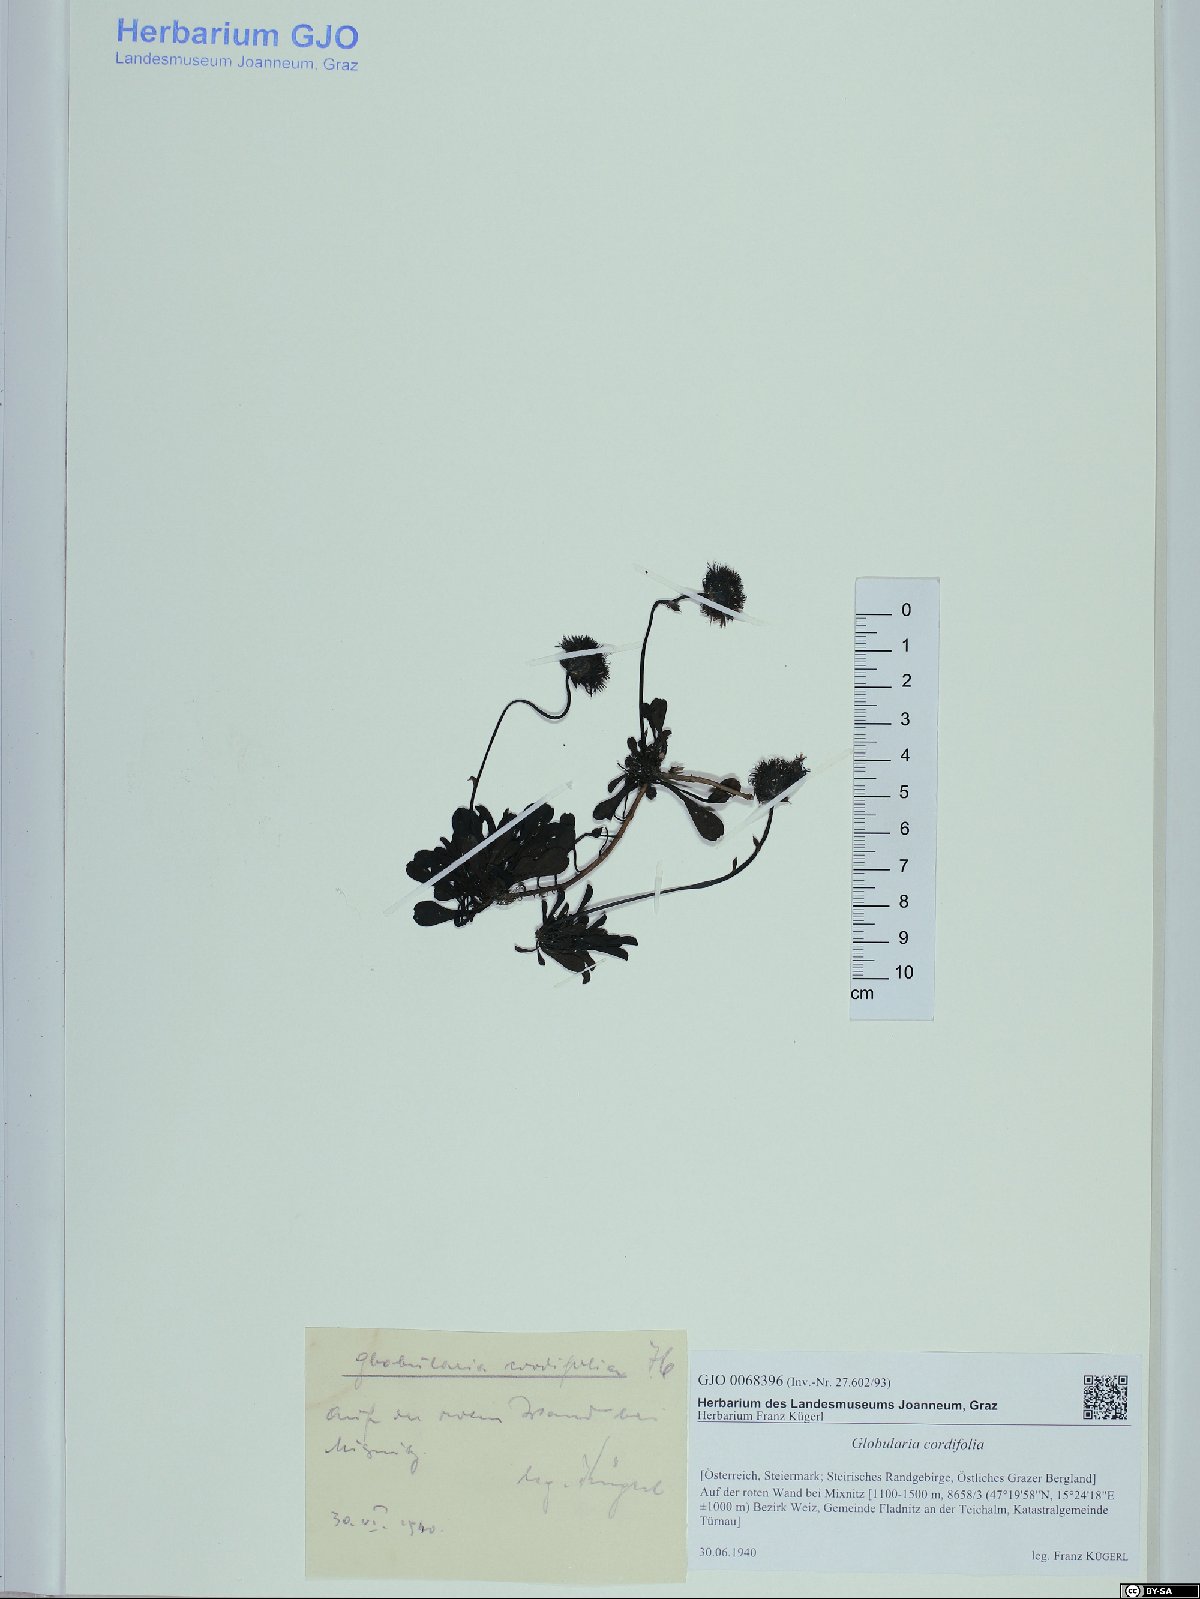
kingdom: Plantae
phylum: Tracheophyta
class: Magnoliopsida
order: Lamiales
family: Plantaginaceae
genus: Globularia
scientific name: Globularia cordifolia
